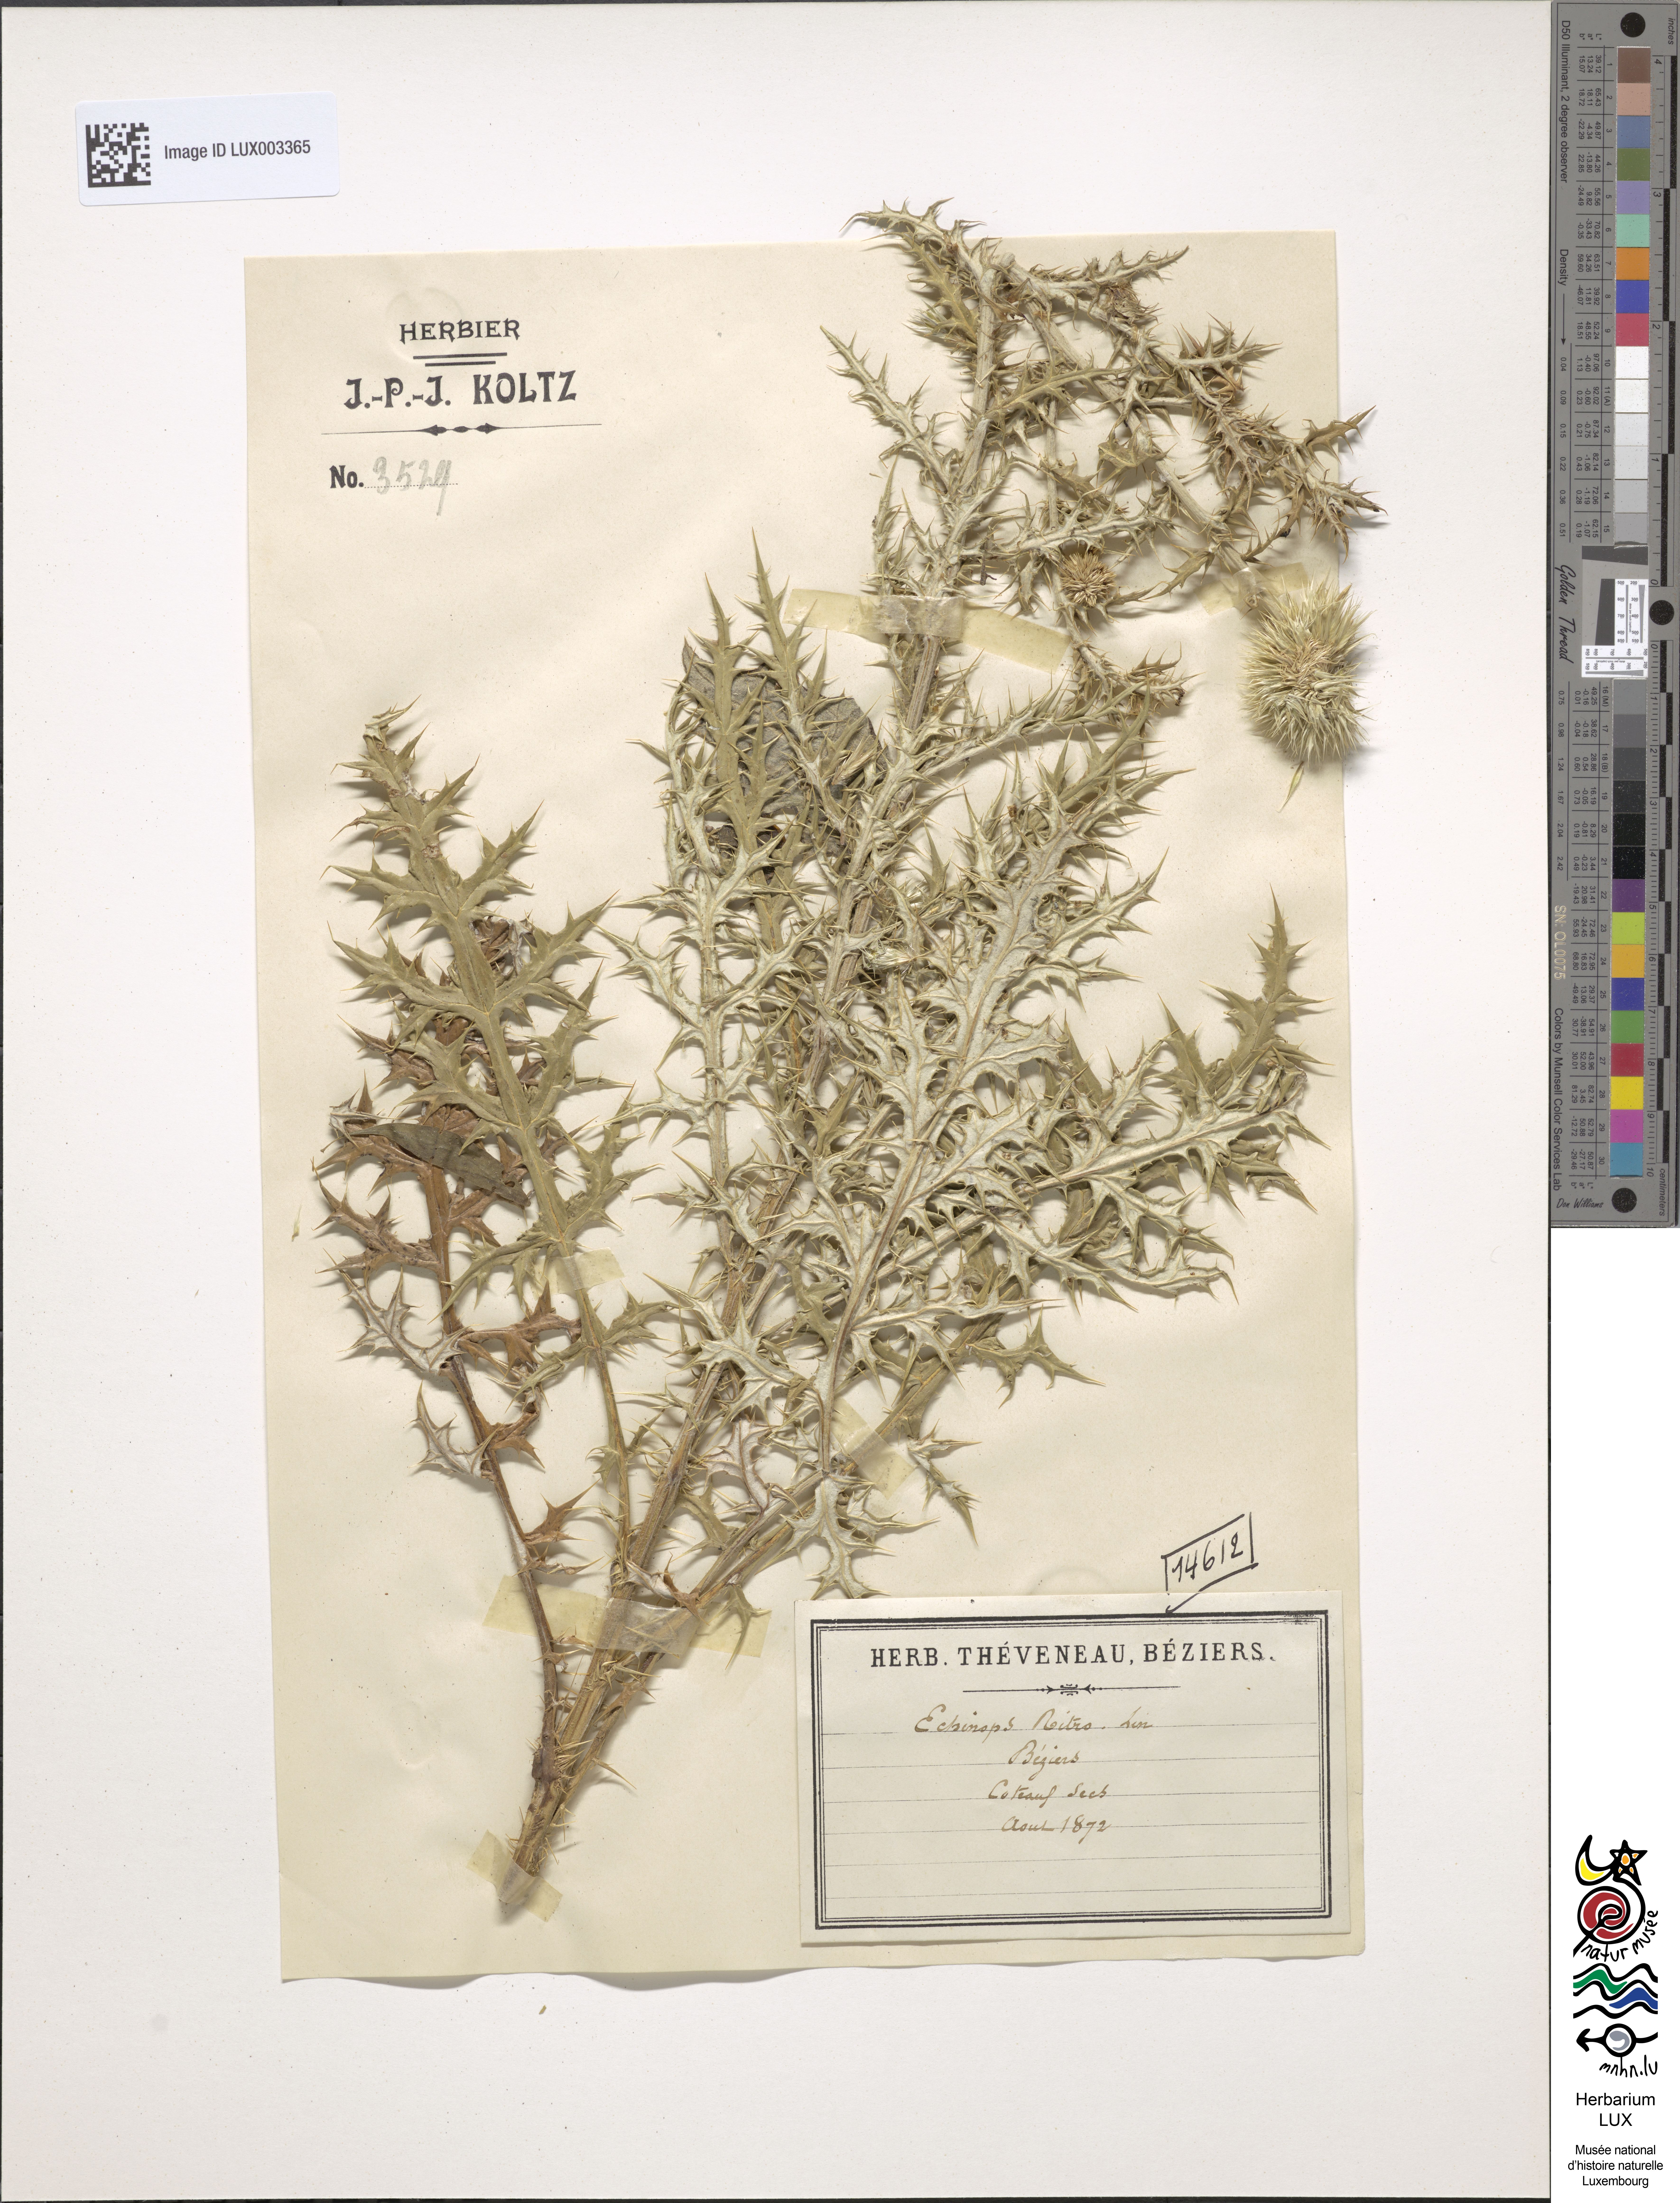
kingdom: Plantae
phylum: Tracheophyta
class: Magnoliopsida
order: Asterales
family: Asteraceae
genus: Echinops
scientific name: Echinops ritro
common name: Globe thistle
